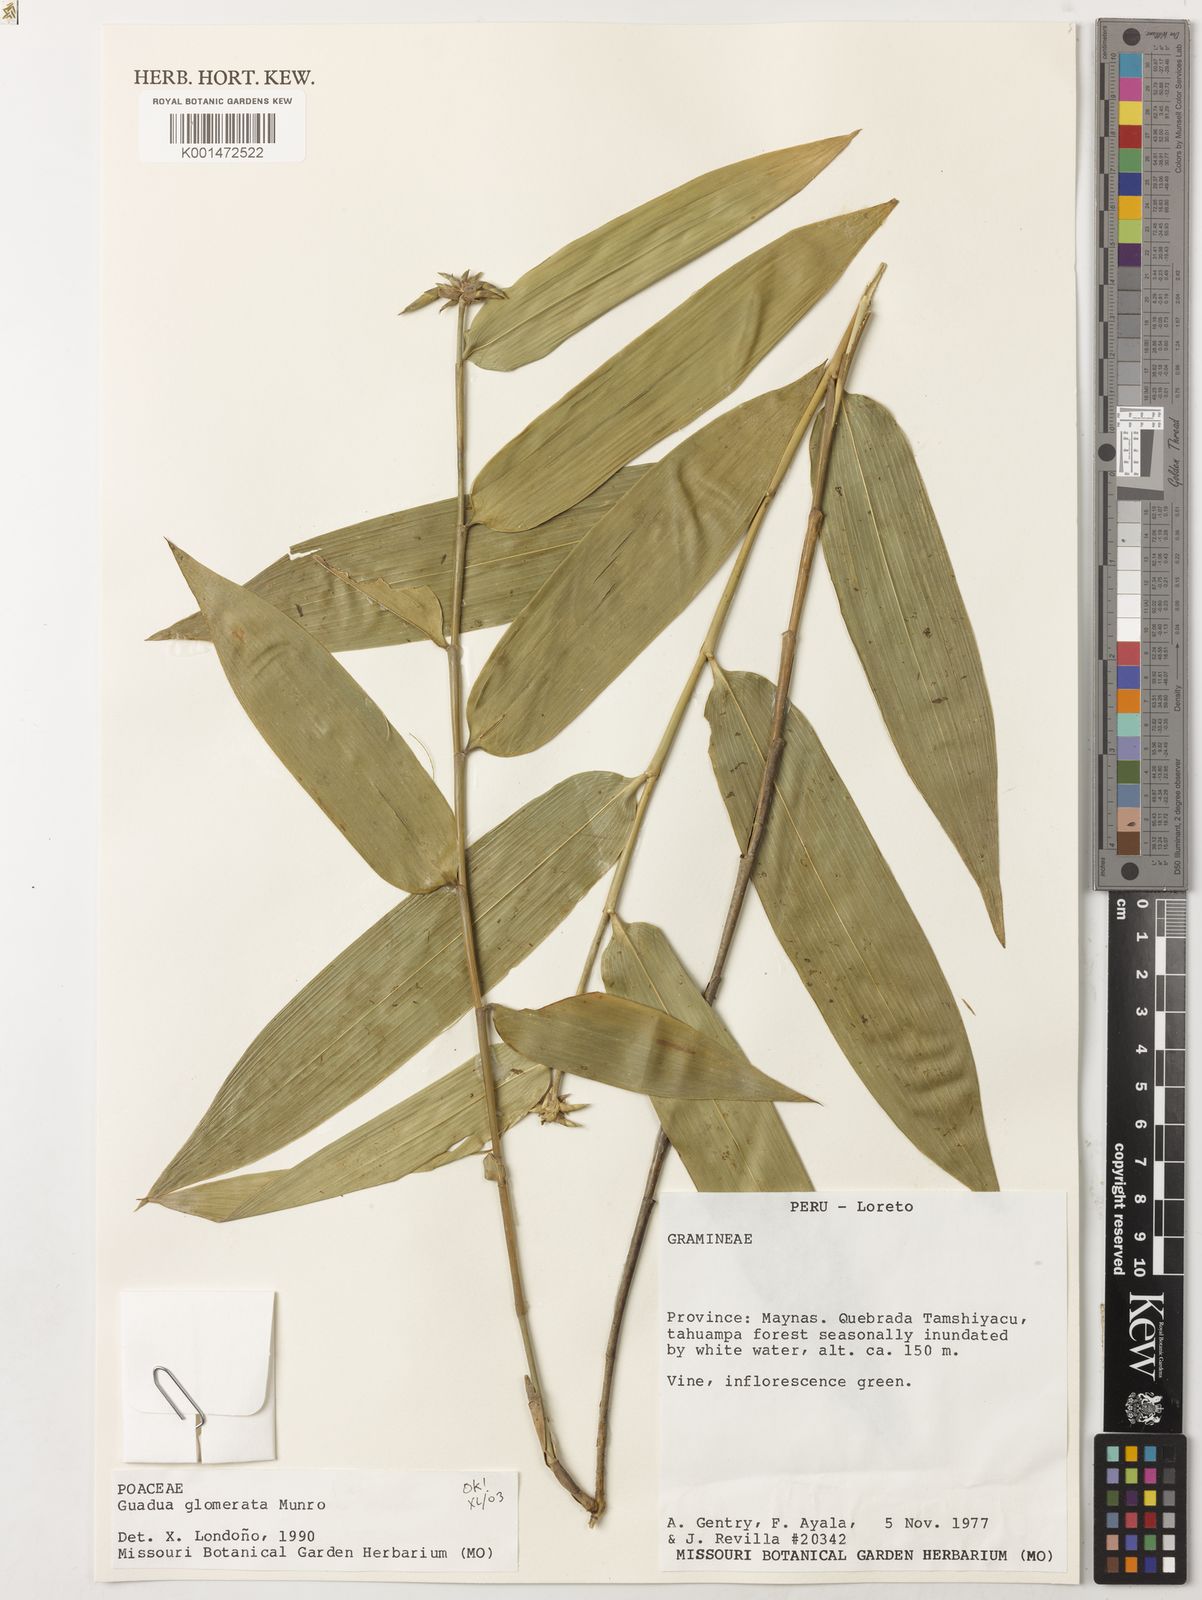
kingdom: Plantae
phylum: Tracheophyta
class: Liliopsida
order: Poales
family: Poaceae
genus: Guadua
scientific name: Guadua glomerata
